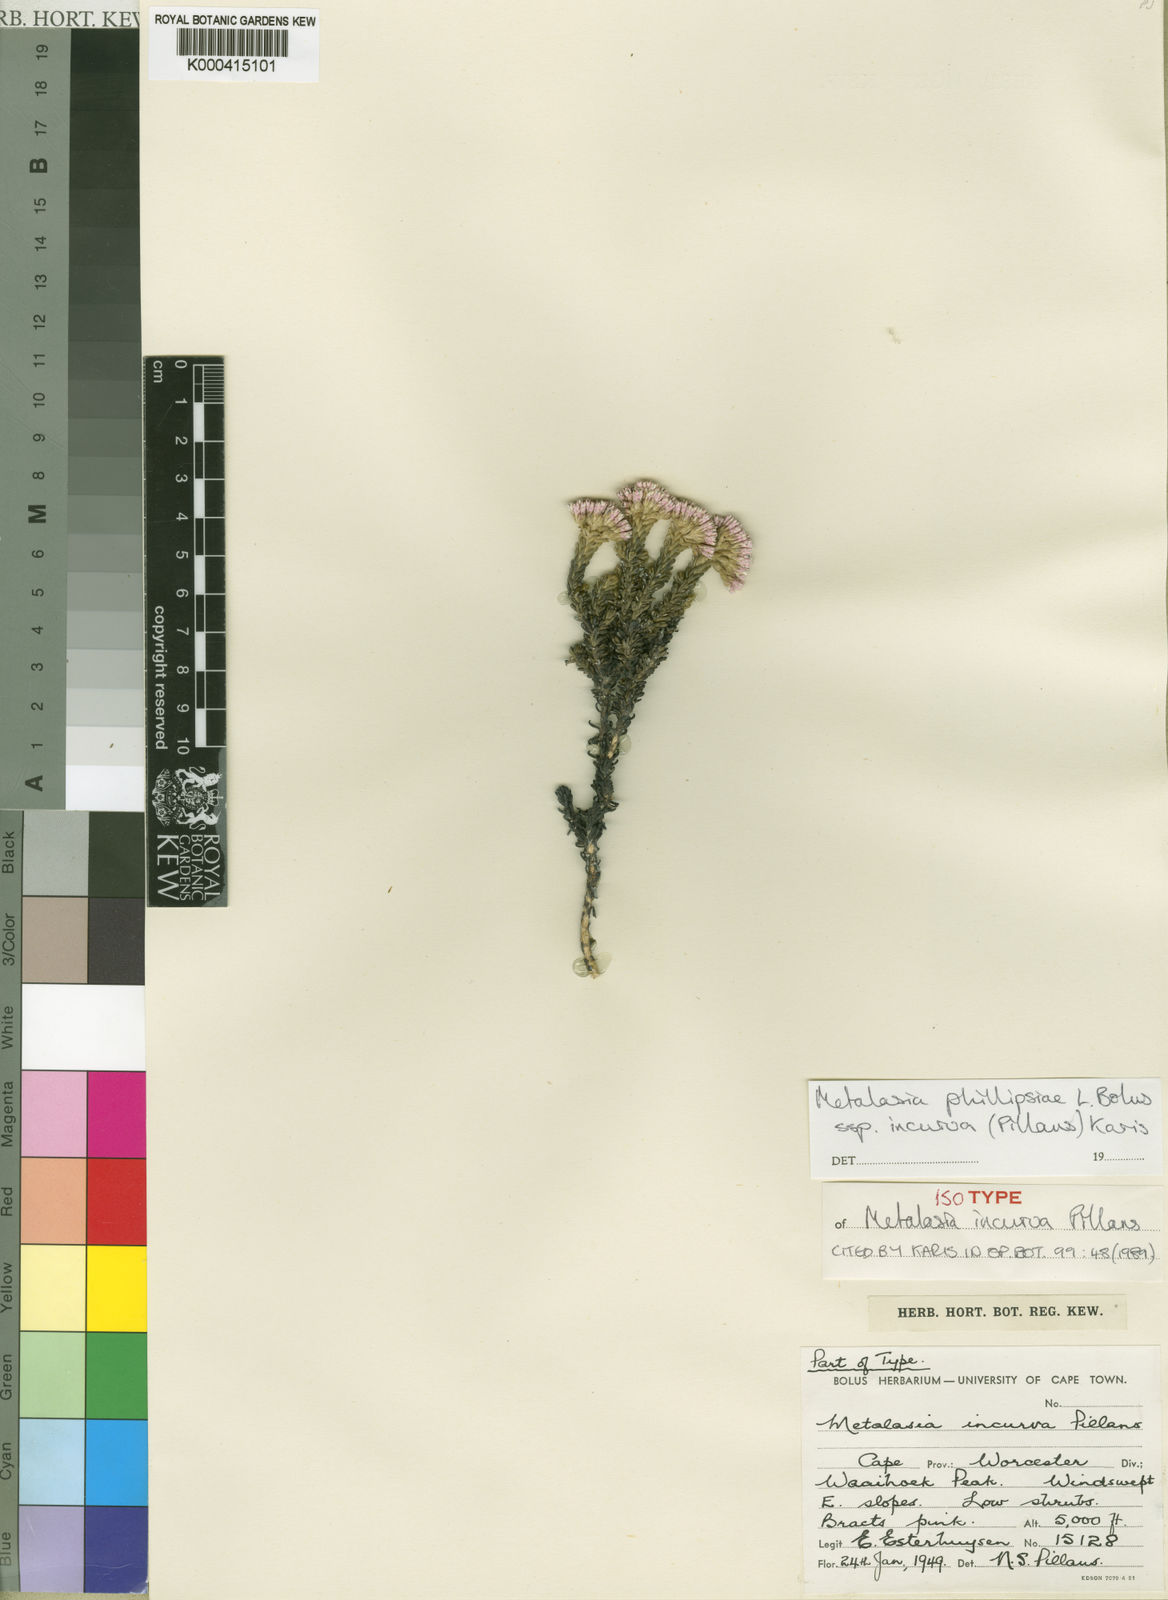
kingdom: Plantae
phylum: Tracheophyta
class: Magnoliopsida
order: Asterales
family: Asteraceae
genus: Metalasia
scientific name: Metalasia phillipsii
